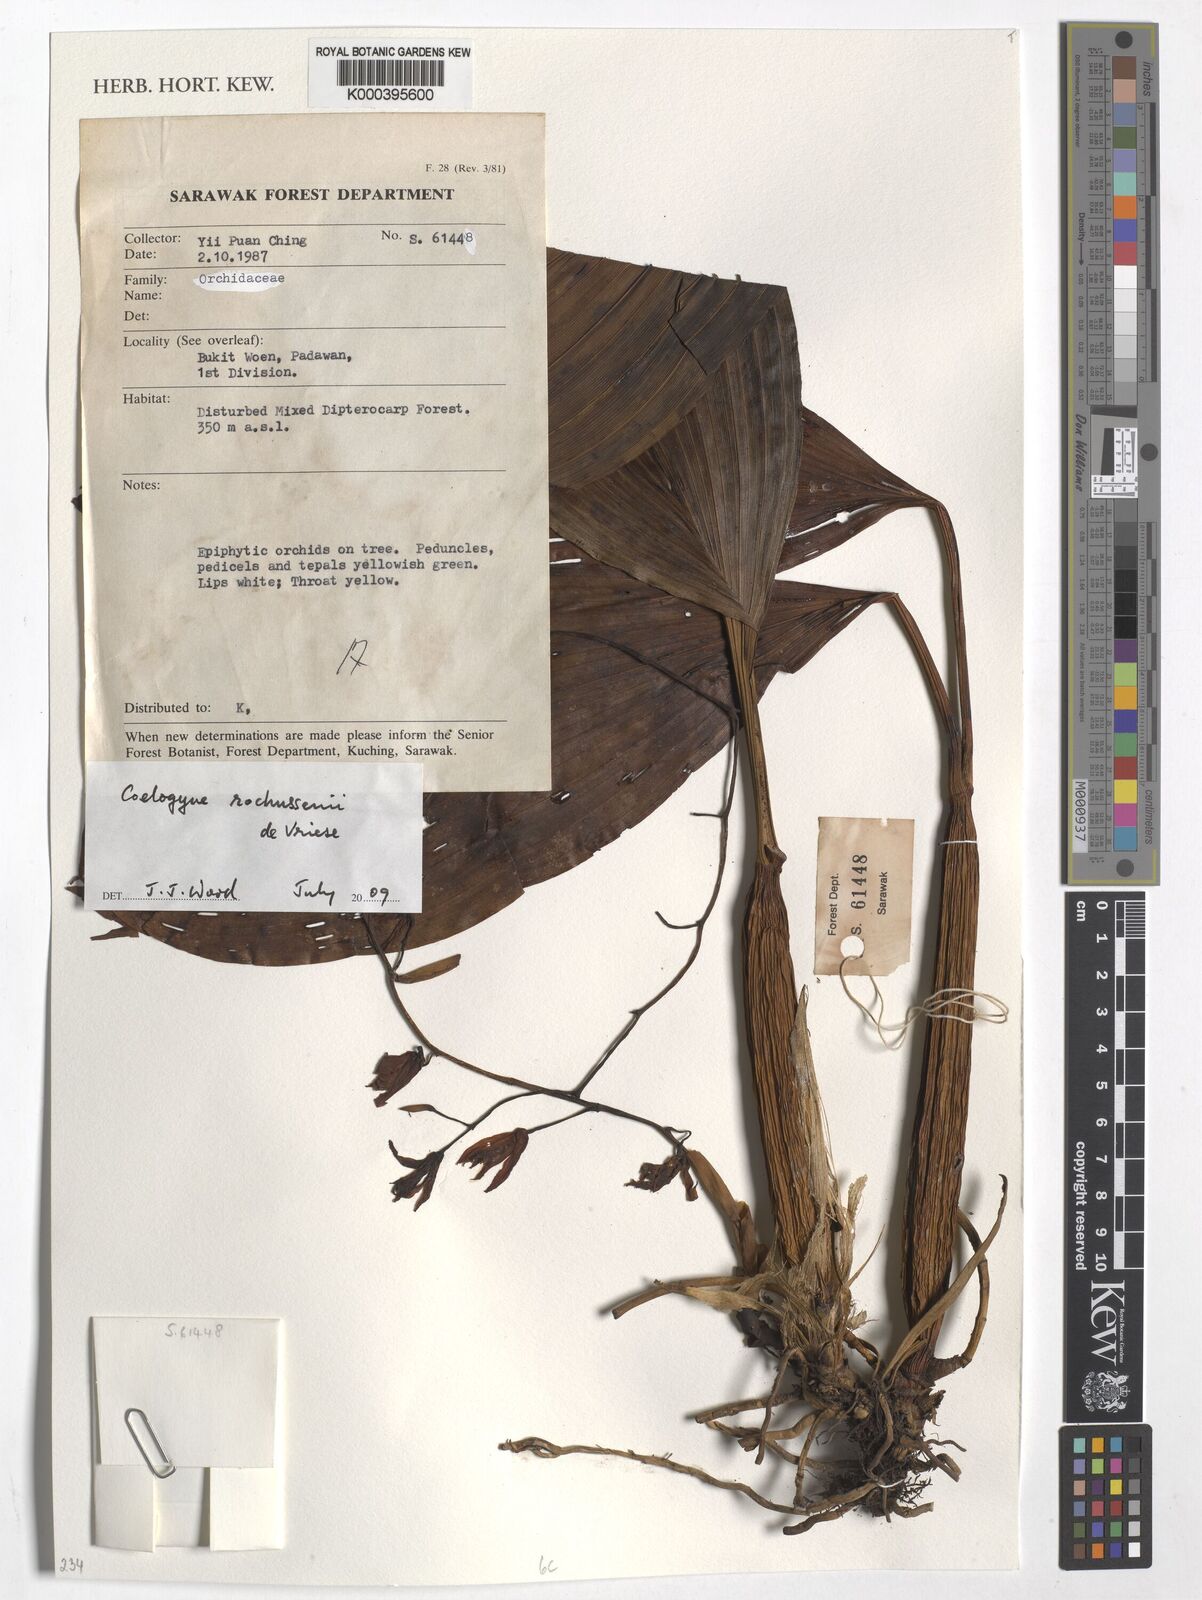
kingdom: Plantae
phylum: Tracheophyta
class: Liliopsida
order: Asparagales
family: Orchidaceae
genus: Coelogyne
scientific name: Coelogyne rochussenii
